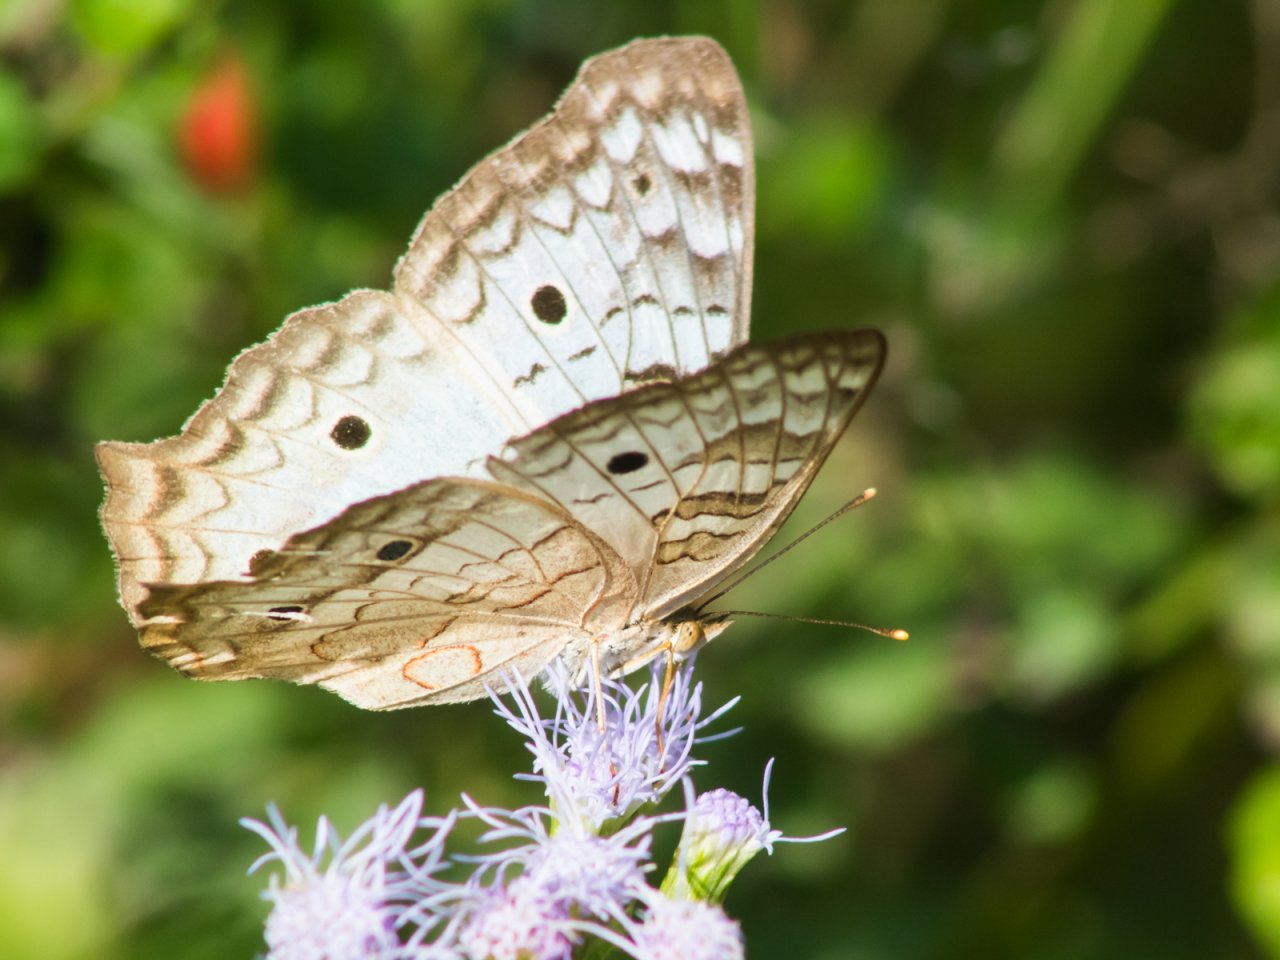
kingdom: Animalia
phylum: Arthropoda
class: Insecta
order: Lepidoptera
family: Nymphalidae
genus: Anartia
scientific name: Anartia jatrophae
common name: White Peacock
